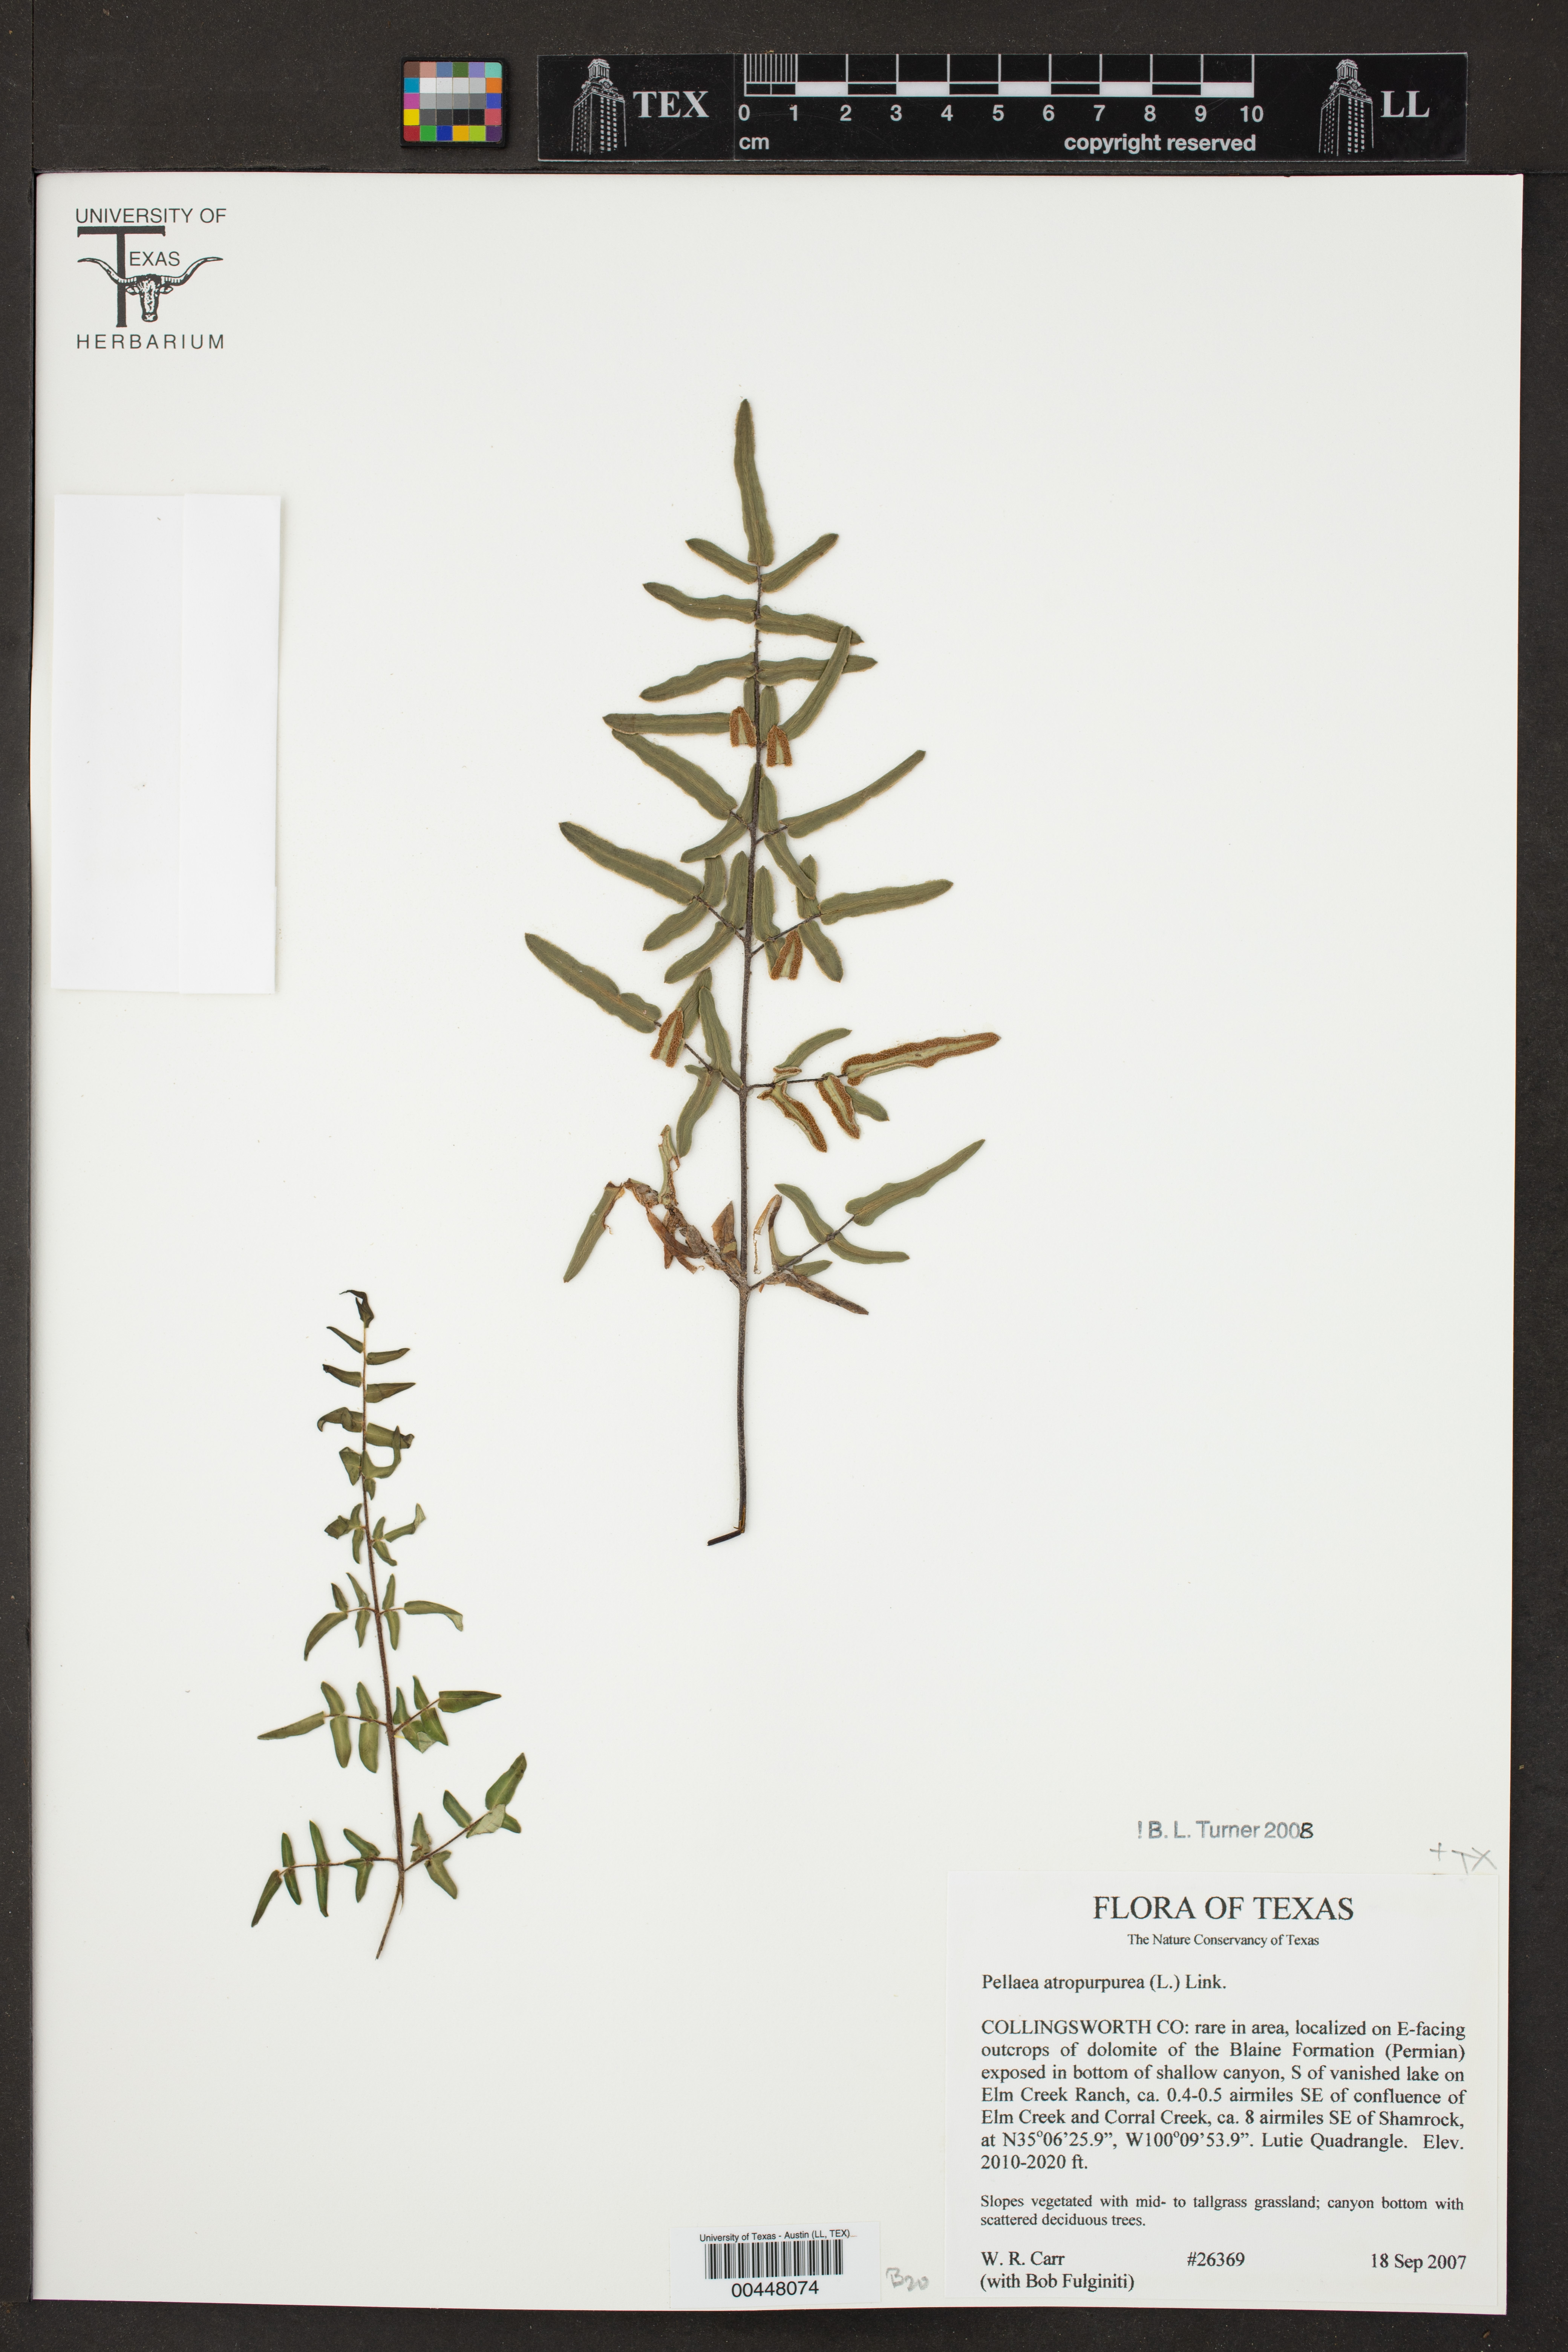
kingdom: Plantae
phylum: Tracheophyta
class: Polypodiopsida
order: Polypodiales
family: Pteridaceae
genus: Pellaea
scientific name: Pellaea atropurpurea
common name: Hairy cliffbrake
